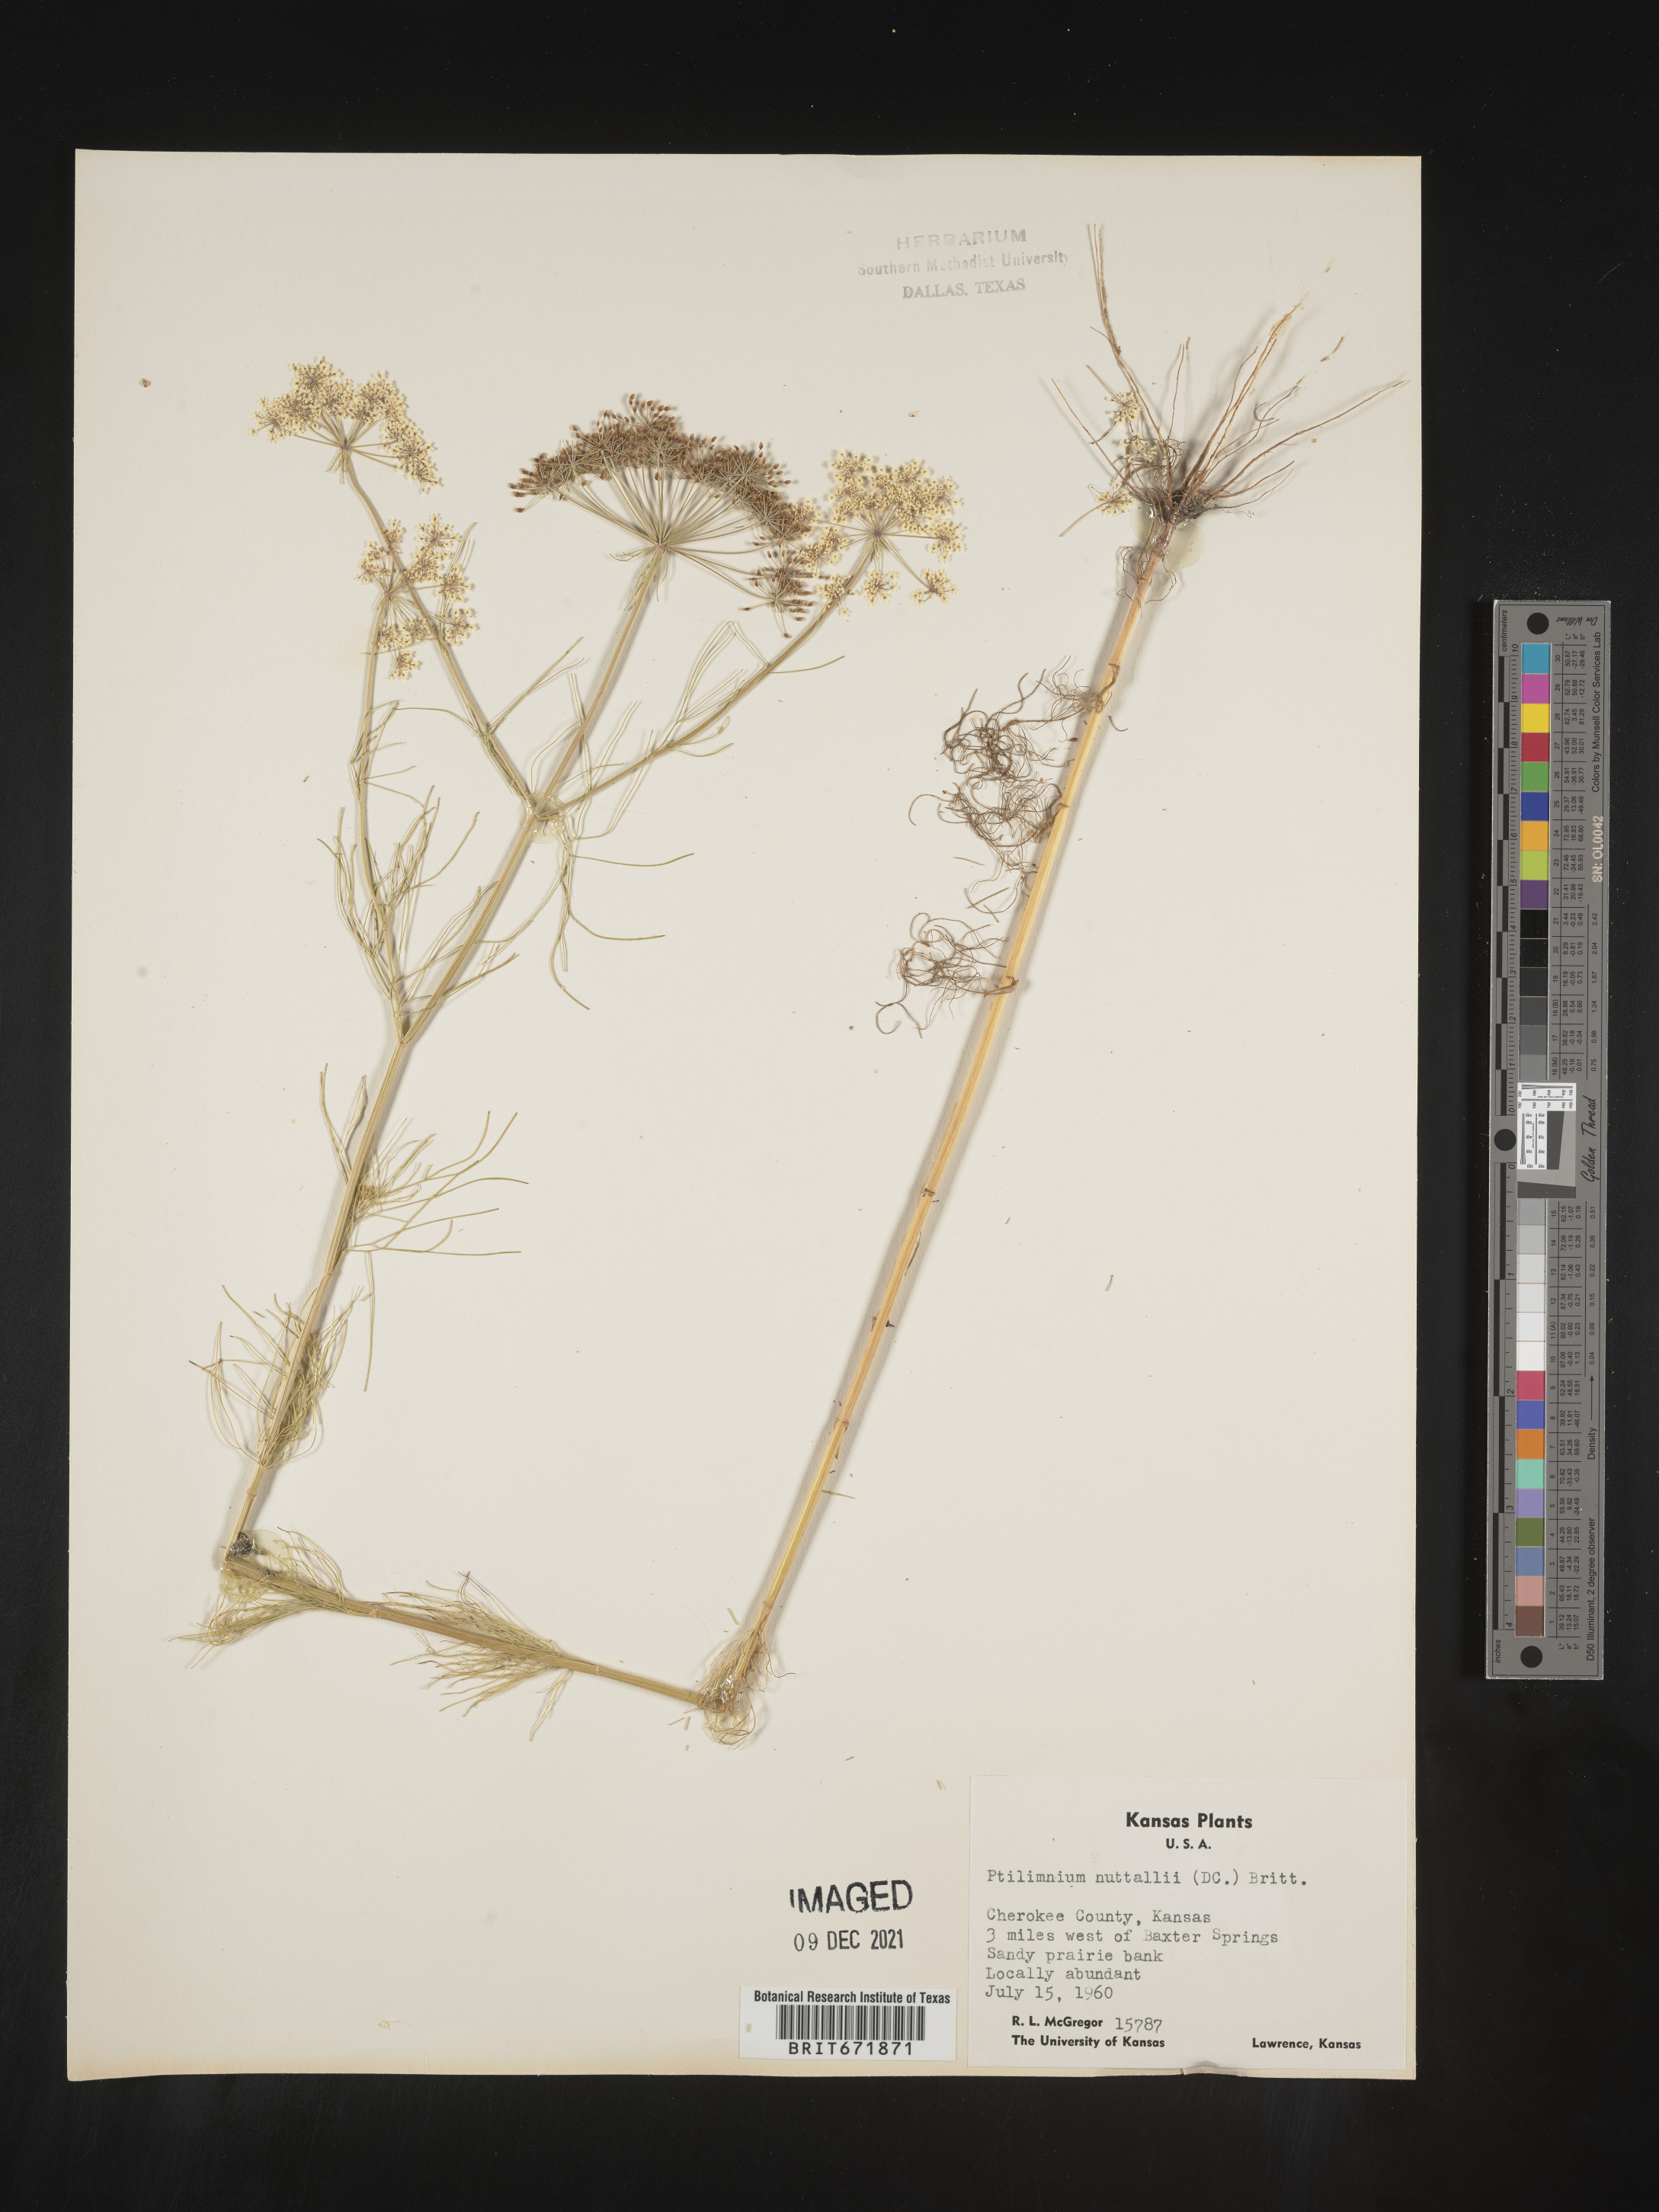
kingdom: Plantae
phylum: Tracheophyta
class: Magnoliopsida
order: Apiales
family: Apiaceae
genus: Ptilimnium
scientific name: Ptilimnium nuttallii
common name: Ozark bishop's-weed
